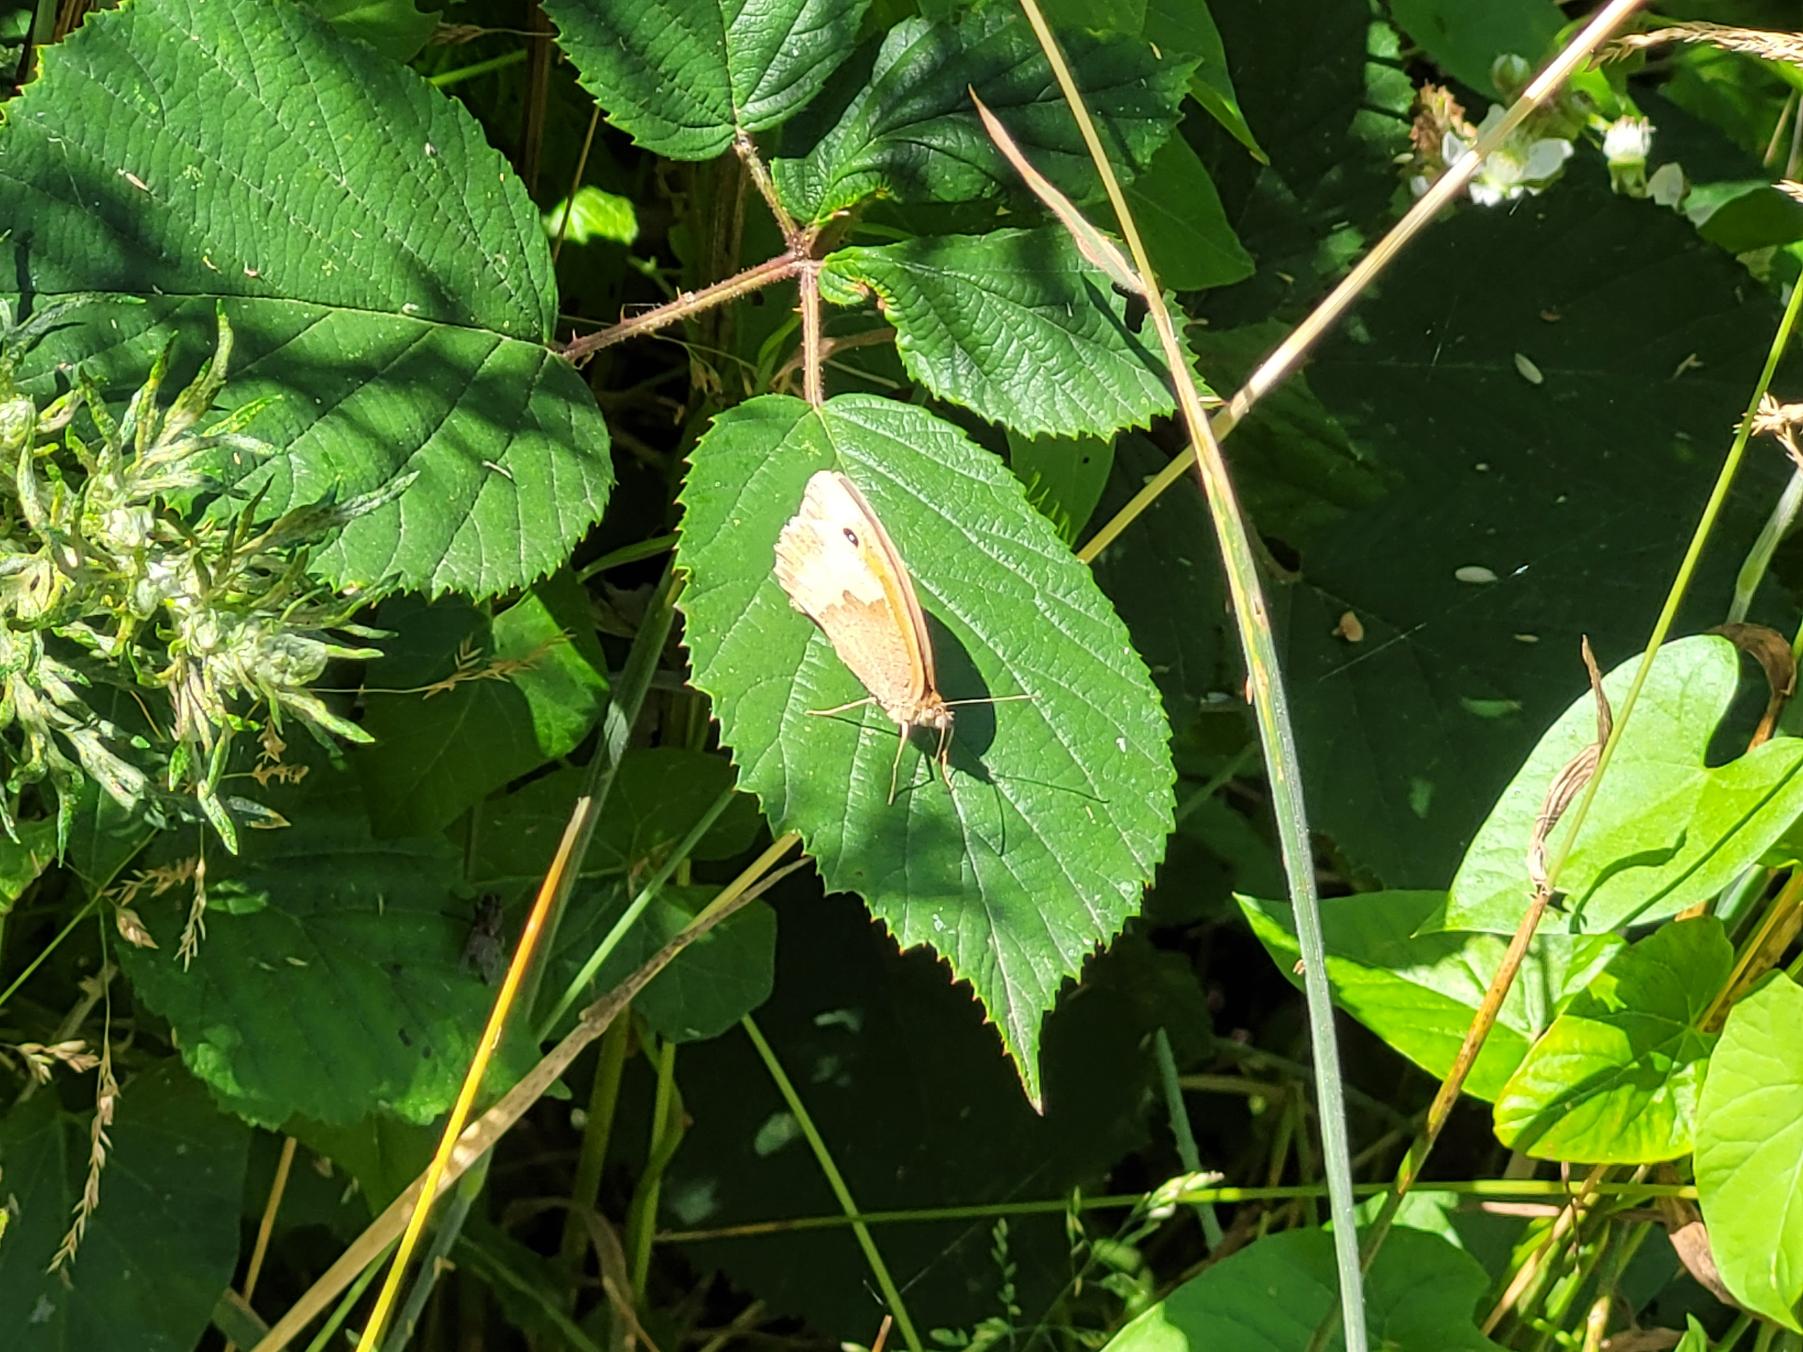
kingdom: Animalia
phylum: Arthropoda
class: Insecta
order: Lepidoptera
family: Nymphalidae
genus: Maniola
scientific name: Maniola jurtina
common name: Græsrandøje
